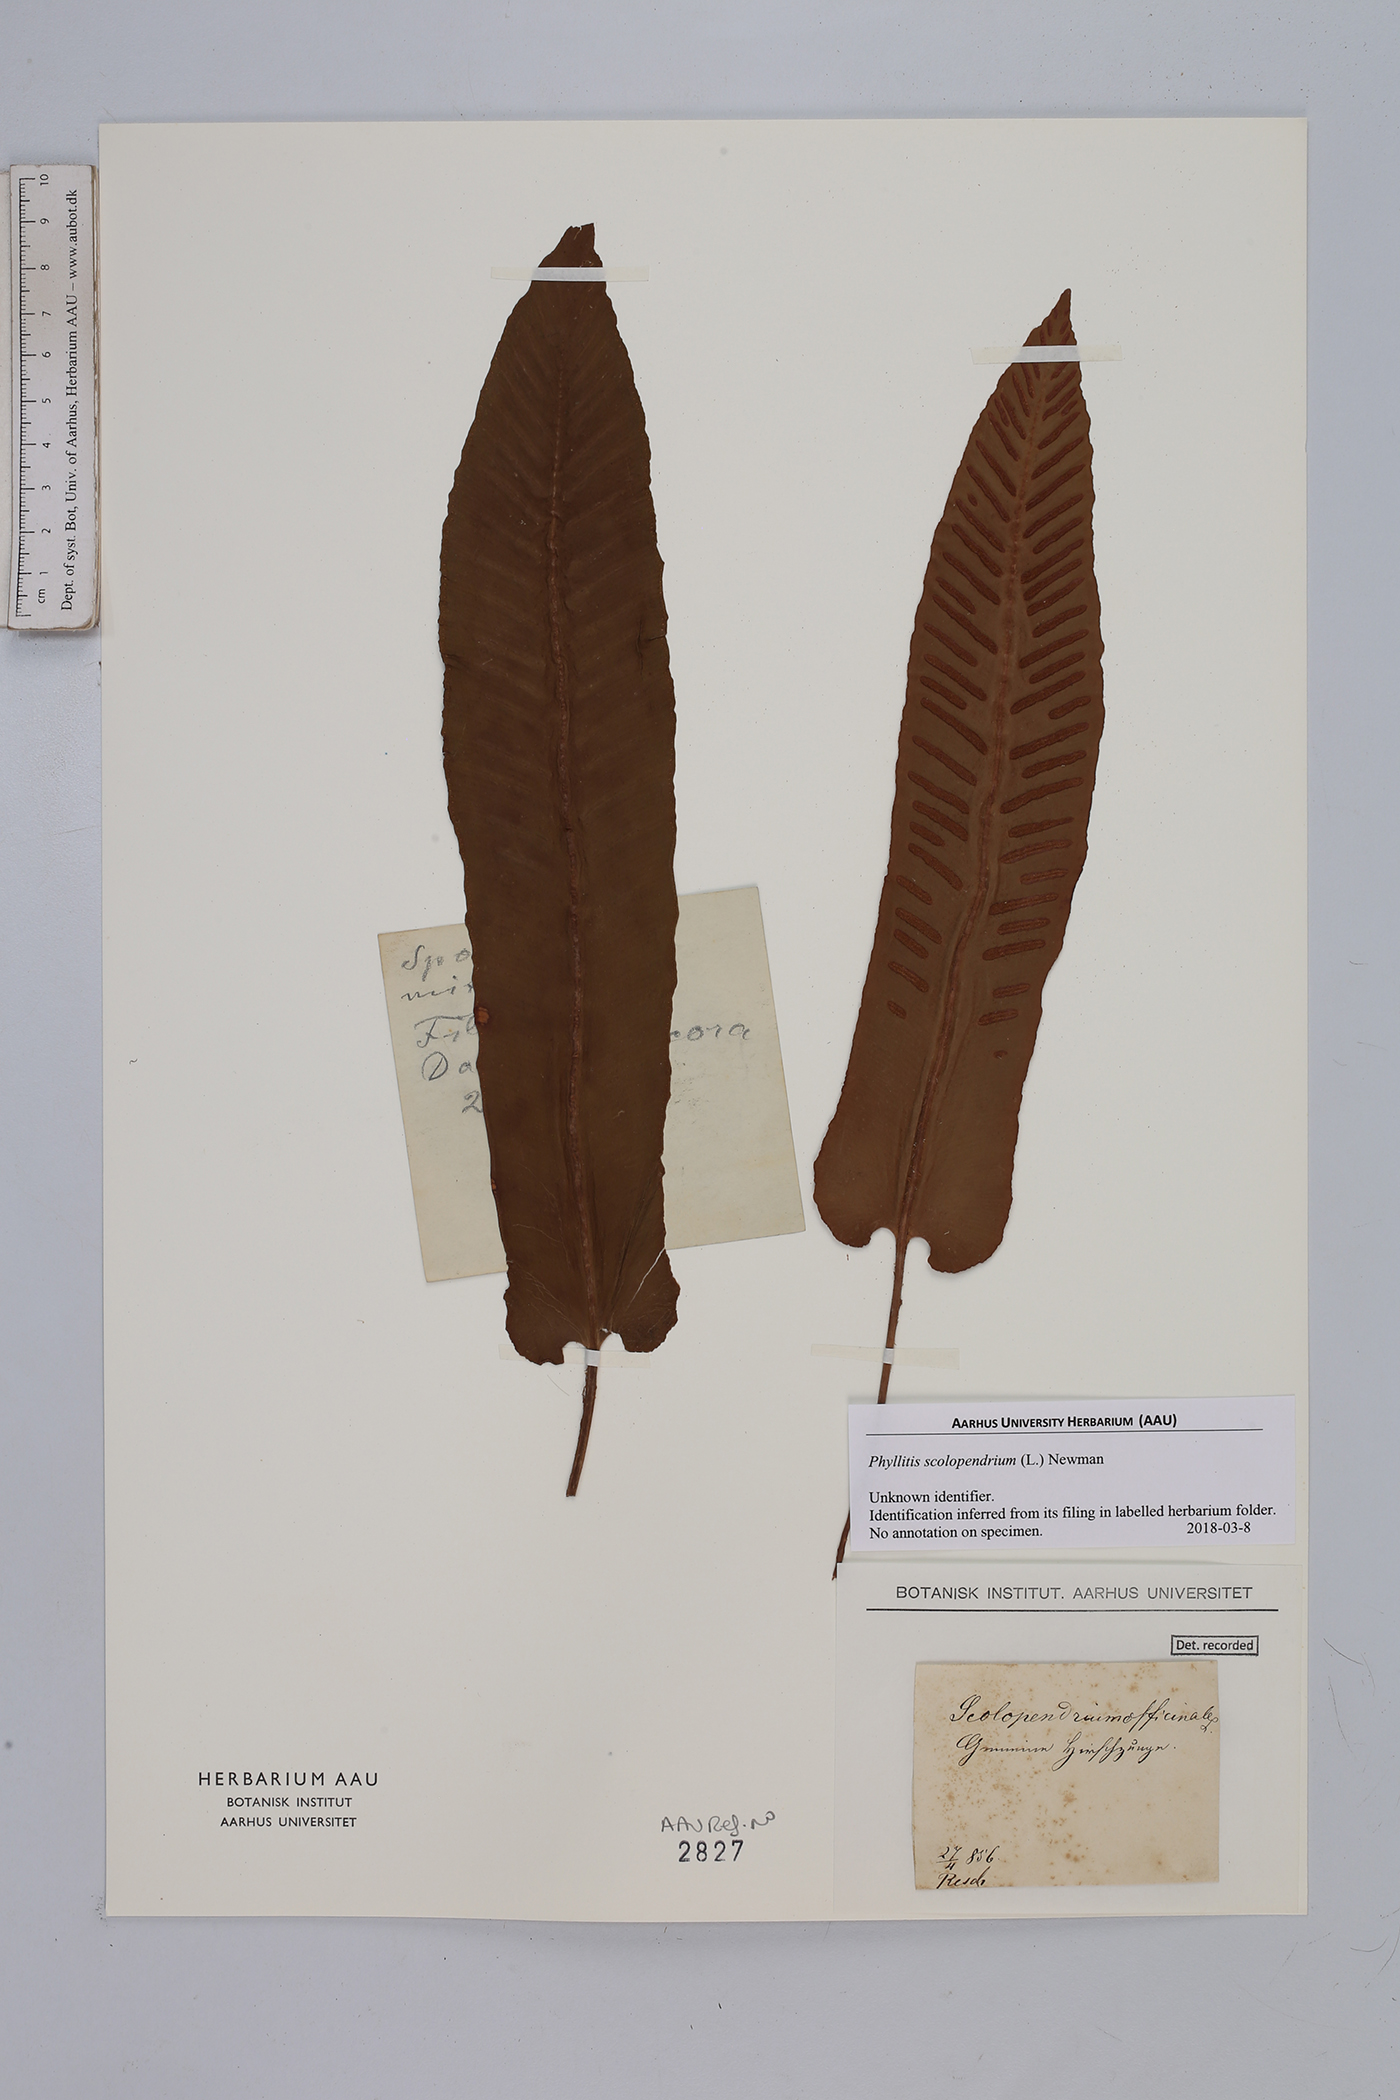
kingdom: Plantae
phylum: Tracheophyta
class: Polypodiopsida
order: Polypodiales
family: Aspleniaceae
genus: Asplenium
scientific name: Asplenium scolopendrium
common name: Hart's-tongue fern
